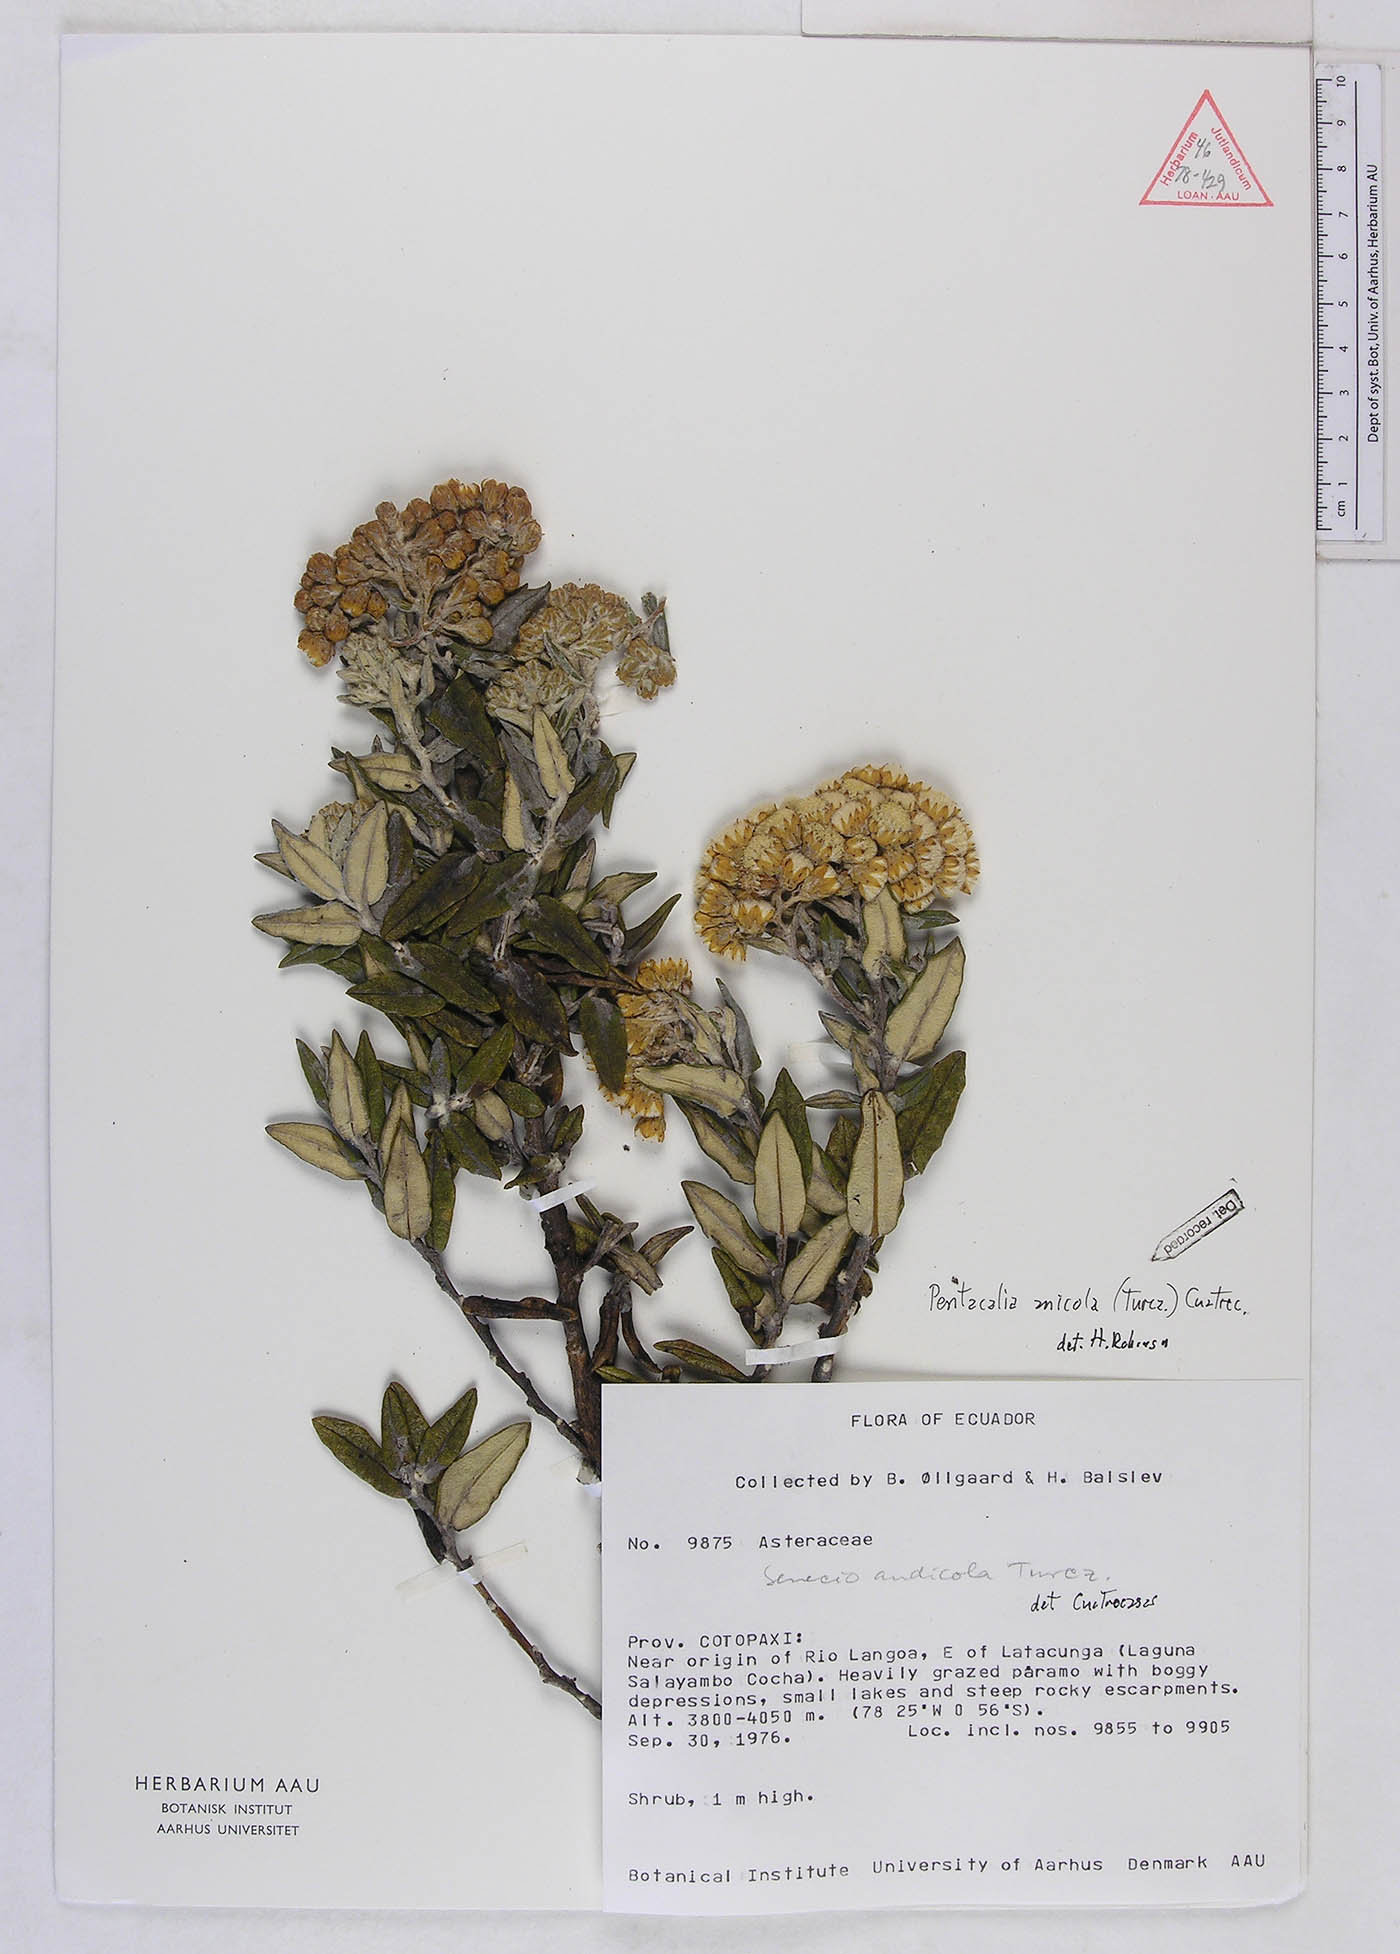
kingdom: Plantae
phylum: Tracheophyta
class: Magnoliopsida
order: Asterales
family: Asteraceae
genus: Monticalia
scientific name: Monticalia andicola
